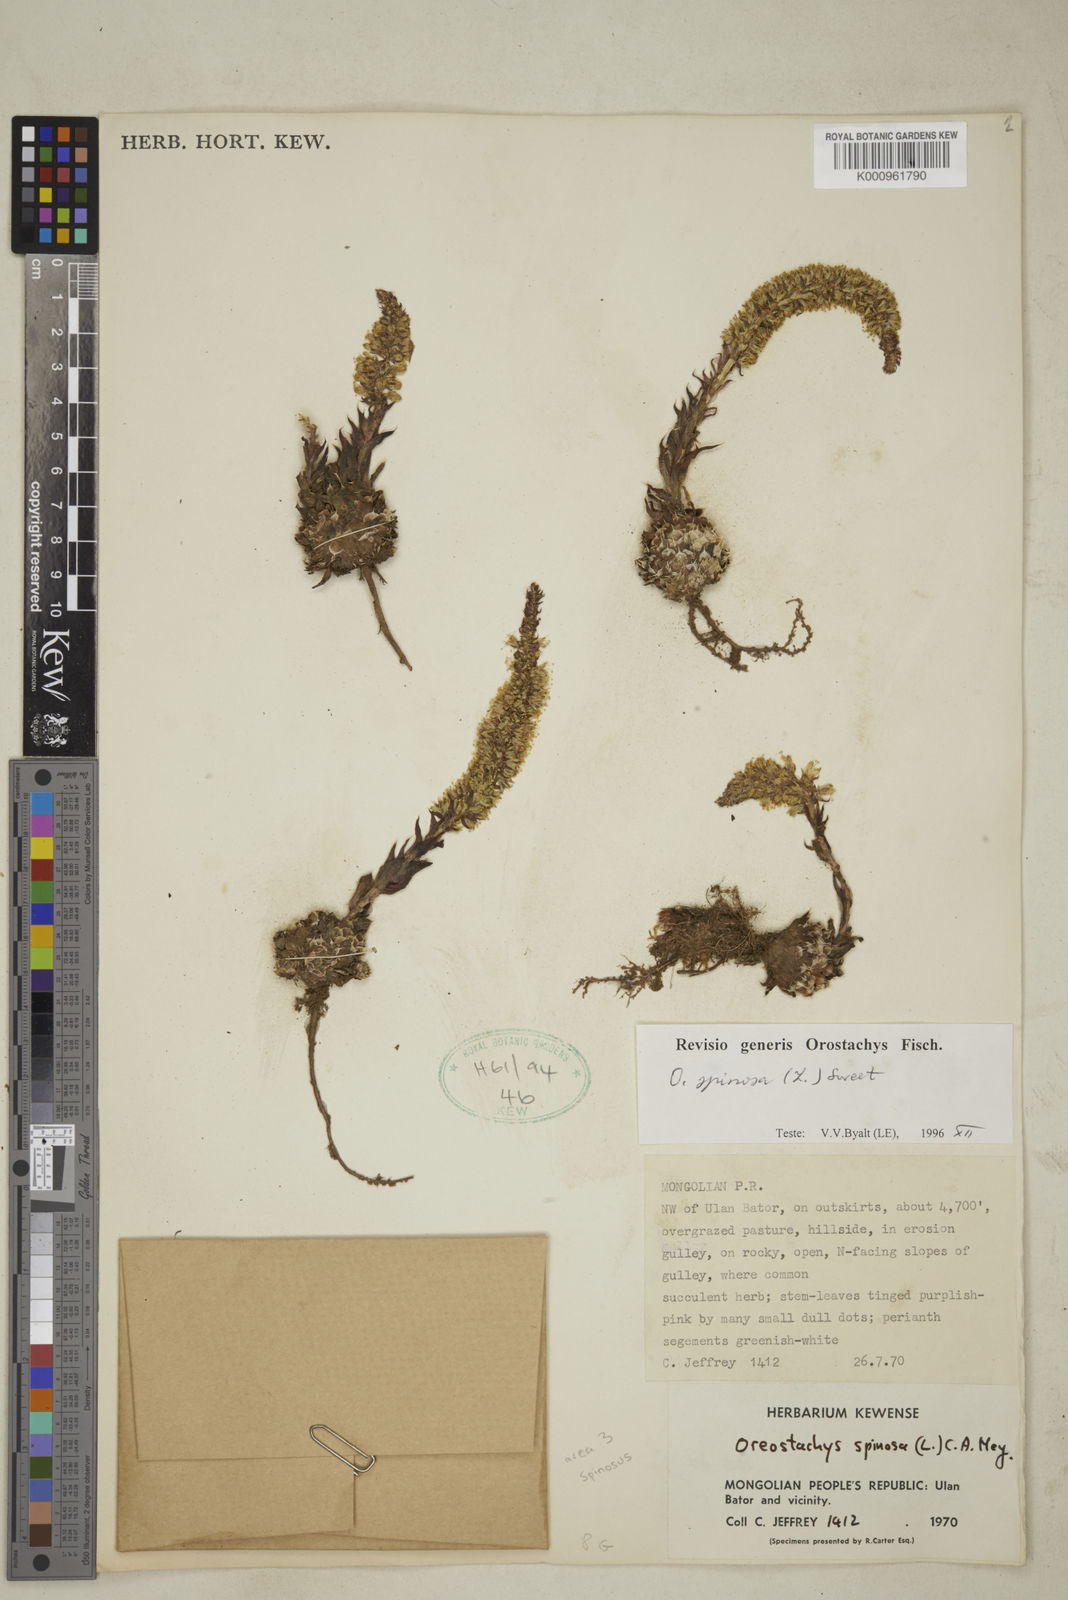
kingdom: Plantae
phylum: Tracheophyta
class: Magnoliopsida
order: Saxifragales
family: Crassulaceae
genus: Orostachys
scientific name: Orostachys spinosa
